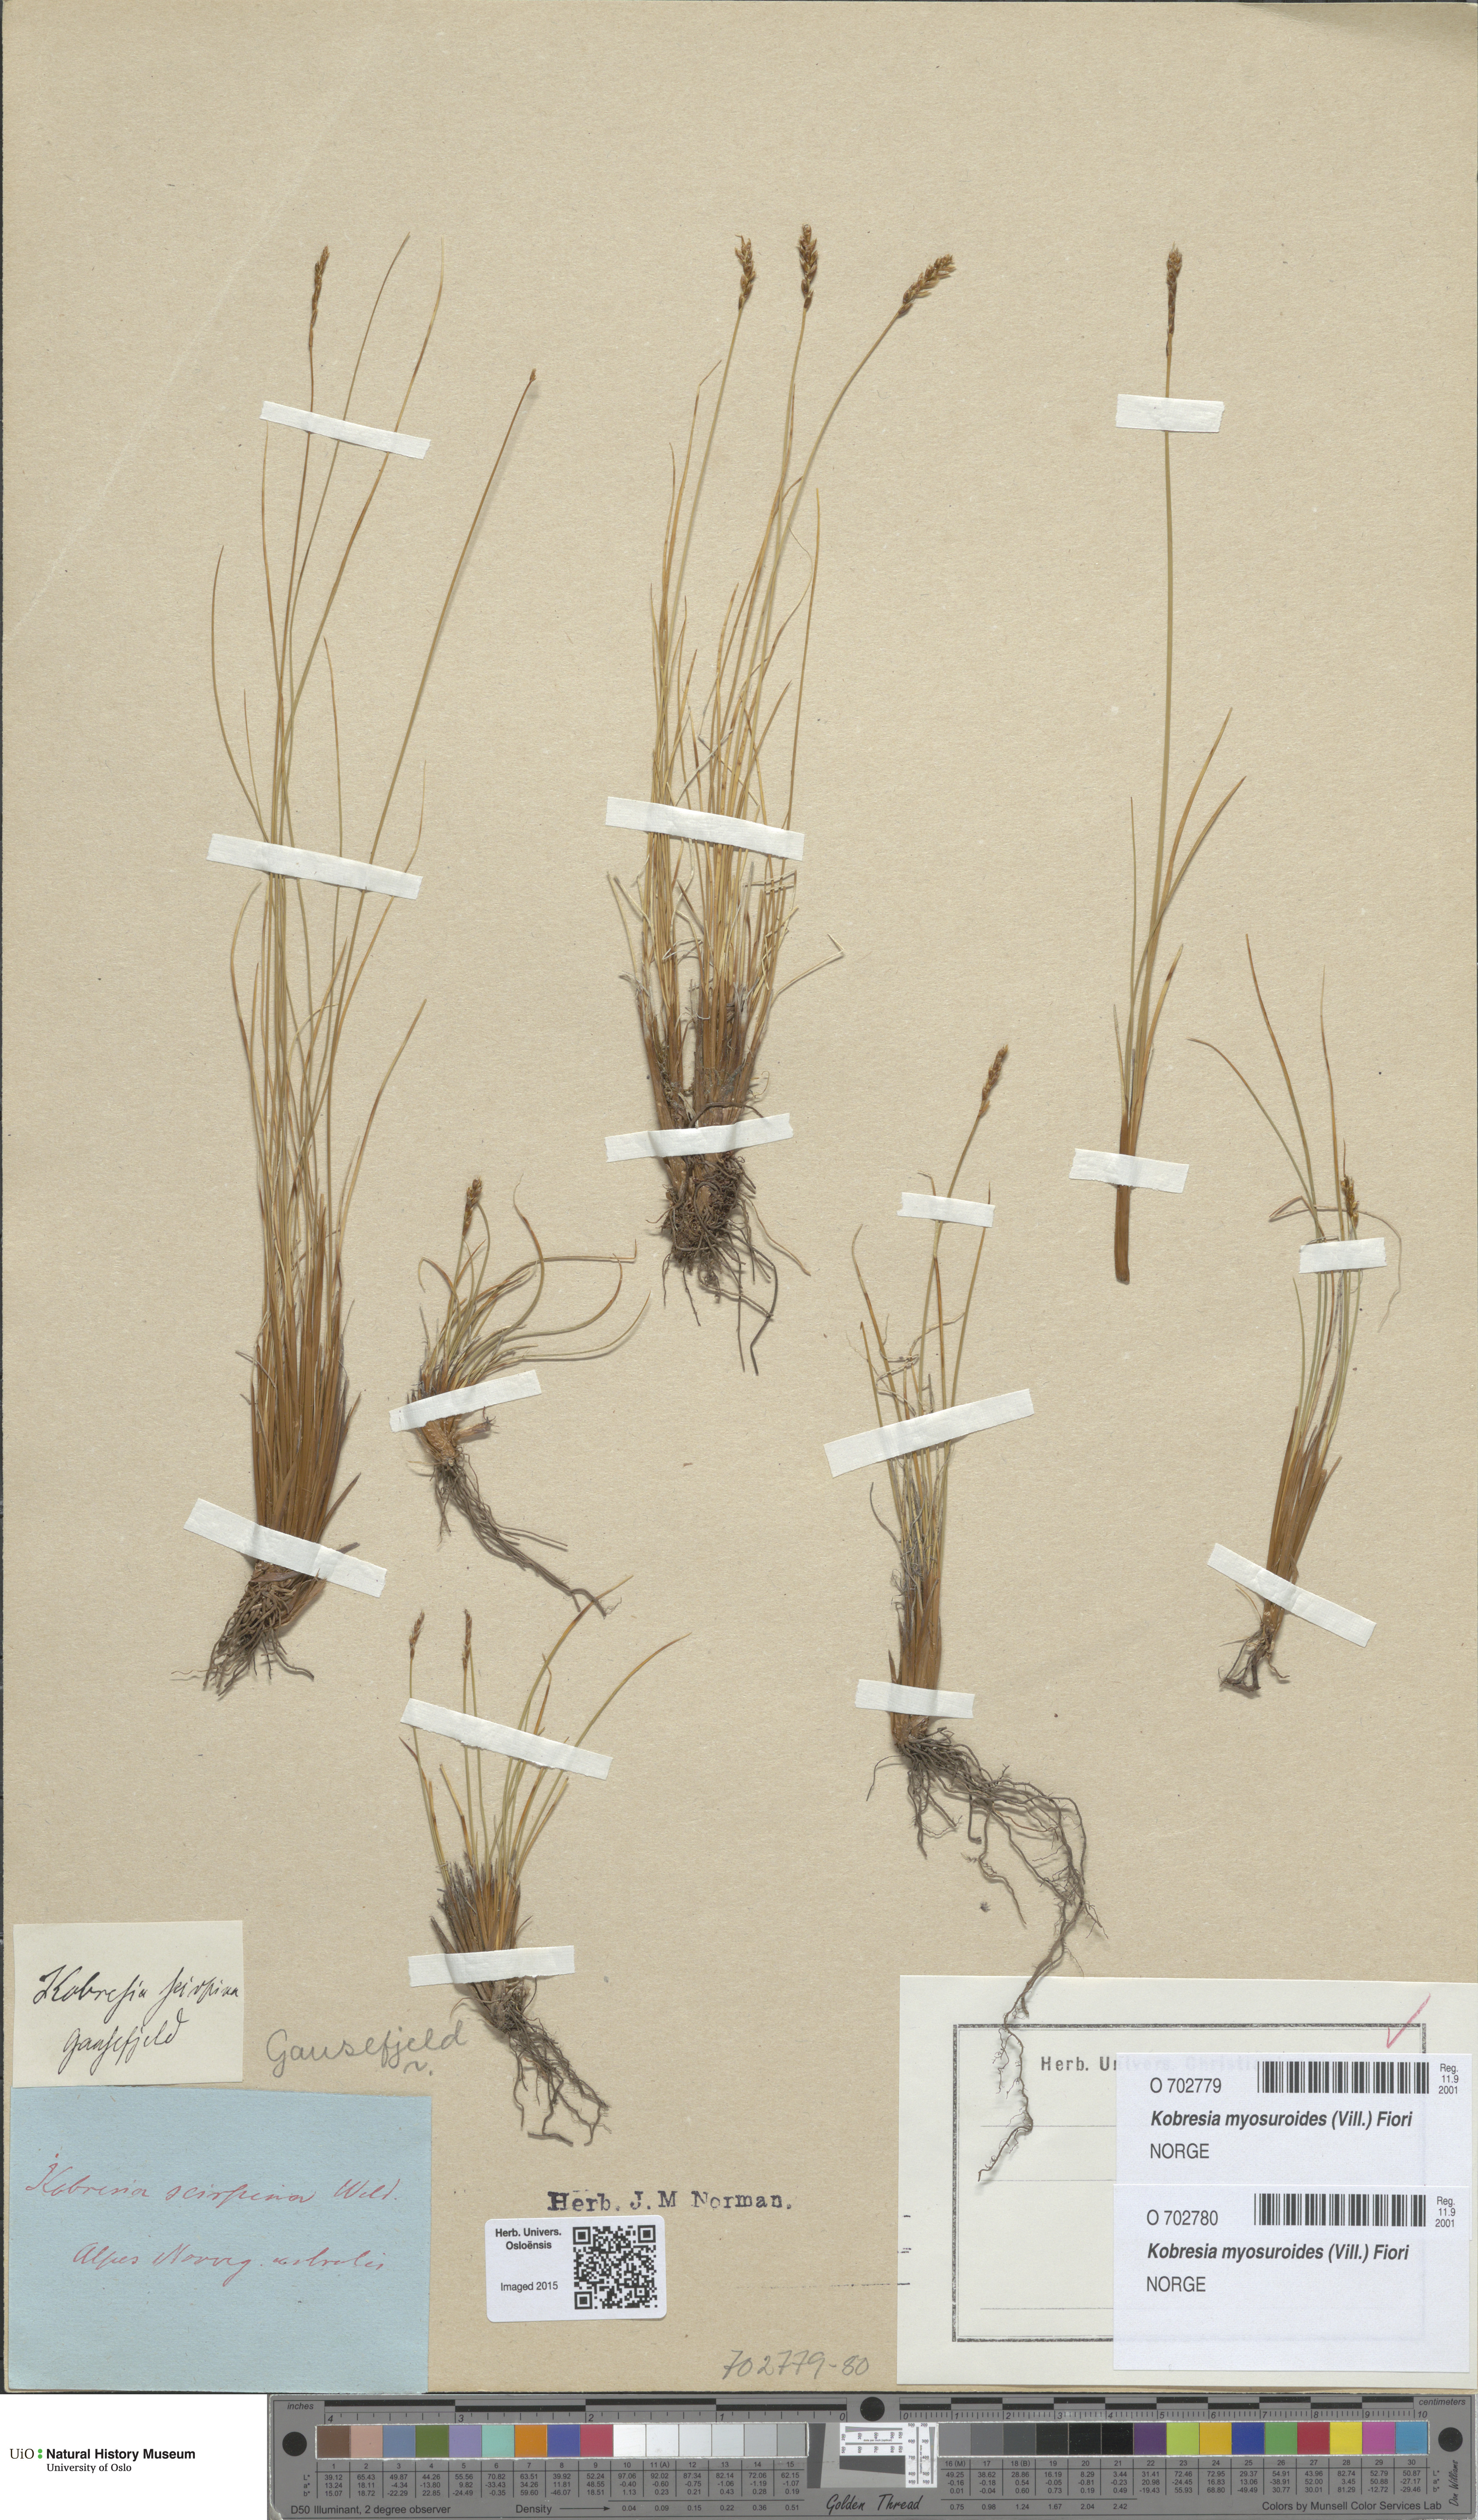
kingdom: Plantae
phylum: Tracheophyta
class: Liliopsida
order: Poales
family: Cyperaceae
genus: Carex
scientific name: Carex myosuroides
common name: Bellard's bog sedge
